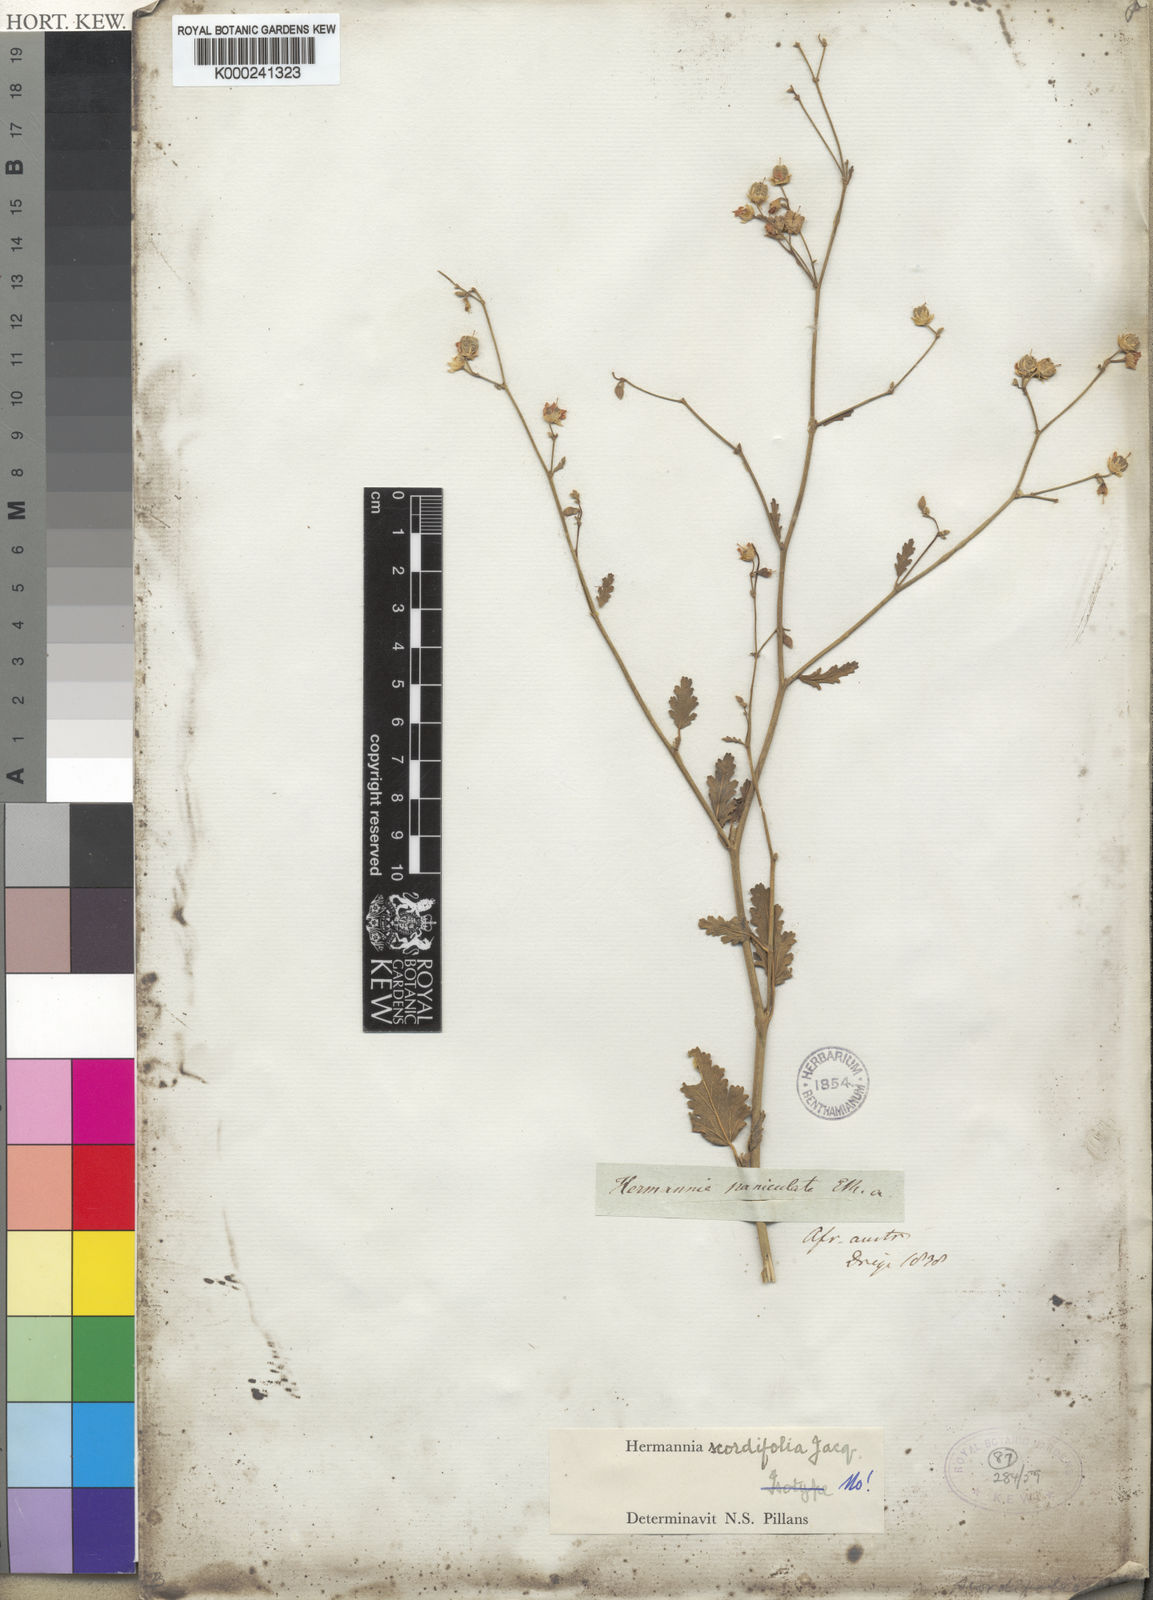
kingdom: Plantae
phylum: Tracheophyta
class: Magnoliopsida
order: Malvales
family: Malvaceae
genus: Hermannia
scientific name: Hermannia scordifolia
